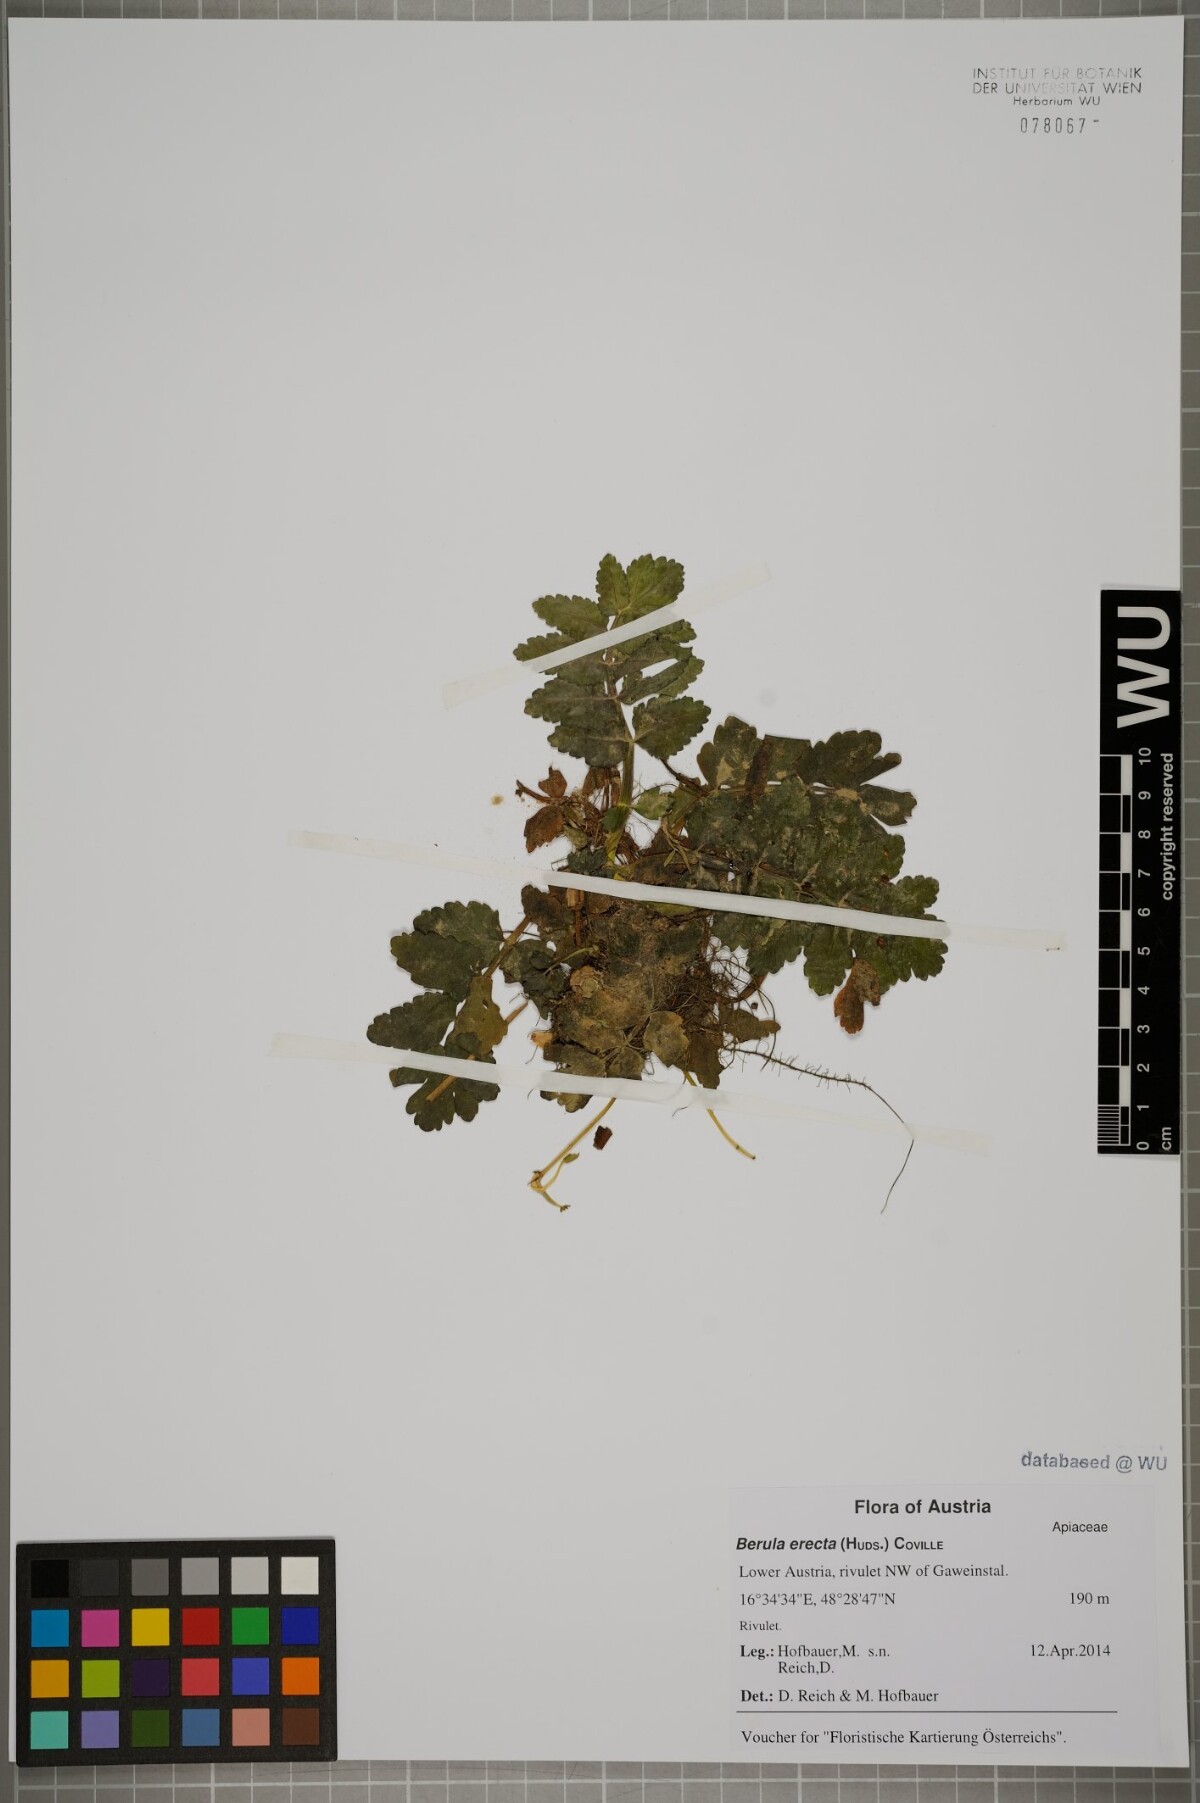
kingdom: Plantae
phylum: Tracheophyta
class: Magnoliopsida
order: Apiales
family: Apiaceae
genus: Berula
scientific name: Berula erecta
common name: Lesser water-parsnip
